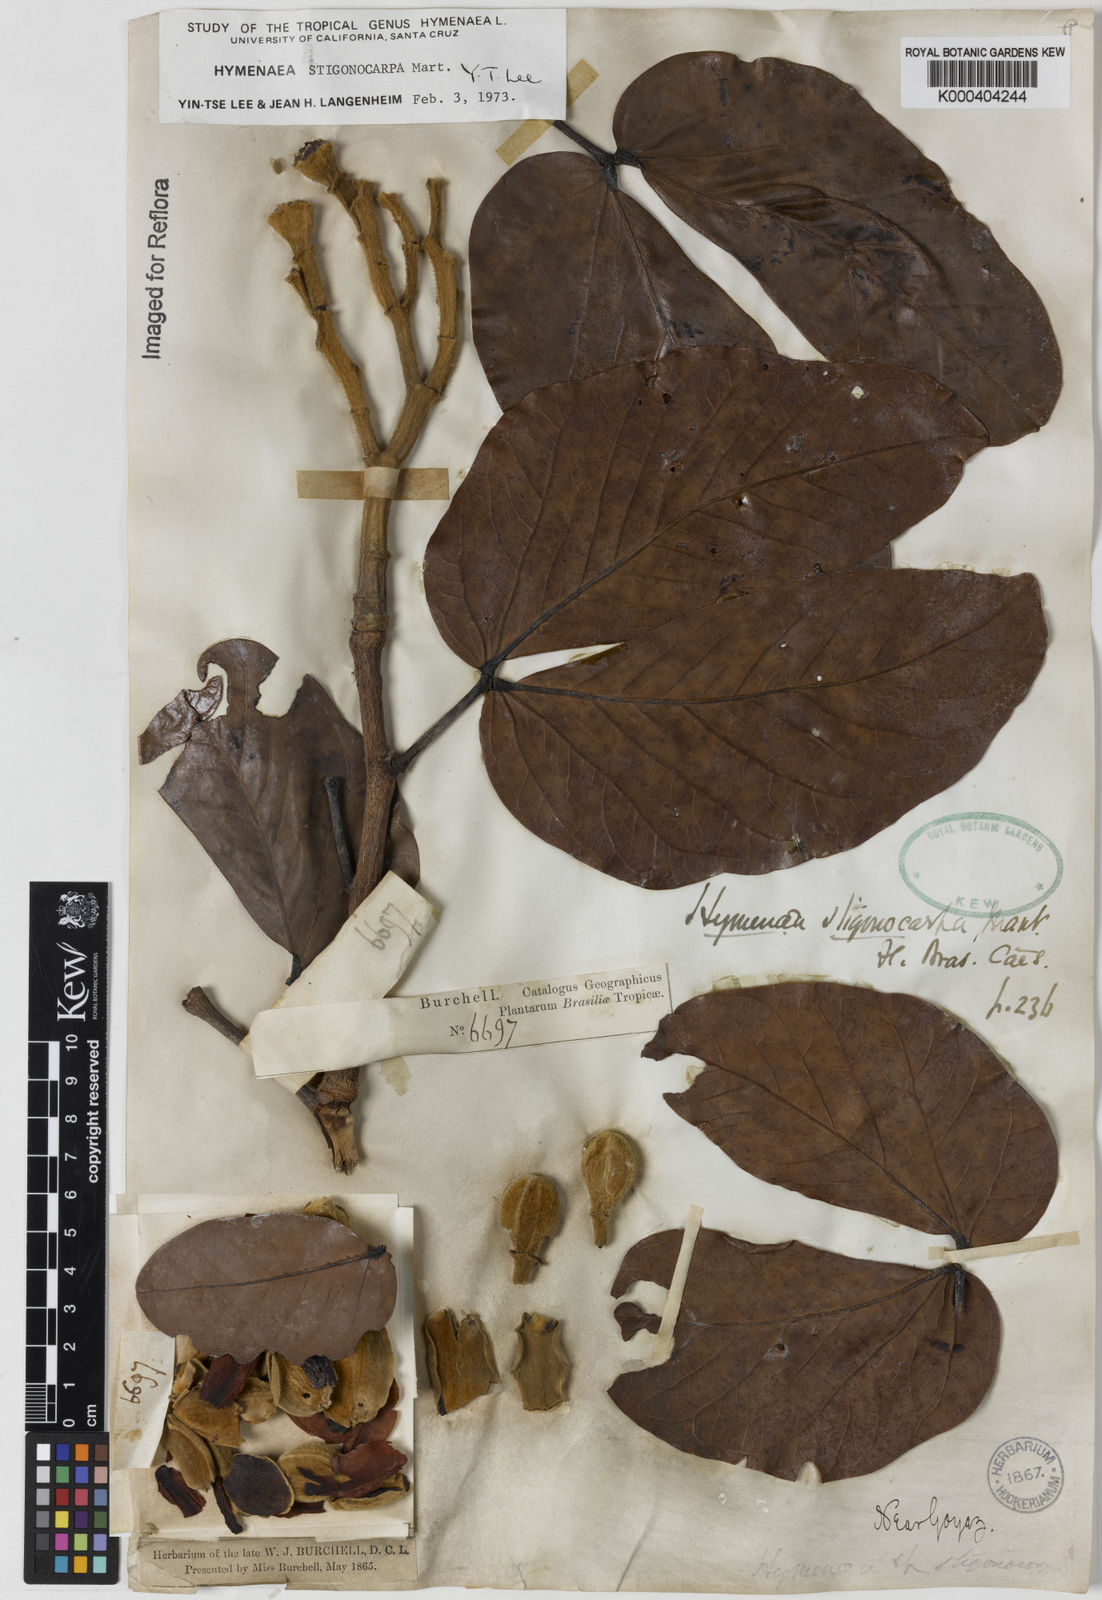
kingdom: Plantae
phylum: Tracheophyta
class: Magnoliopsida
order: Fabales
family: Fabaceae
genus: Hymenaea
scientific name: Hymenaea stigonocarpa
